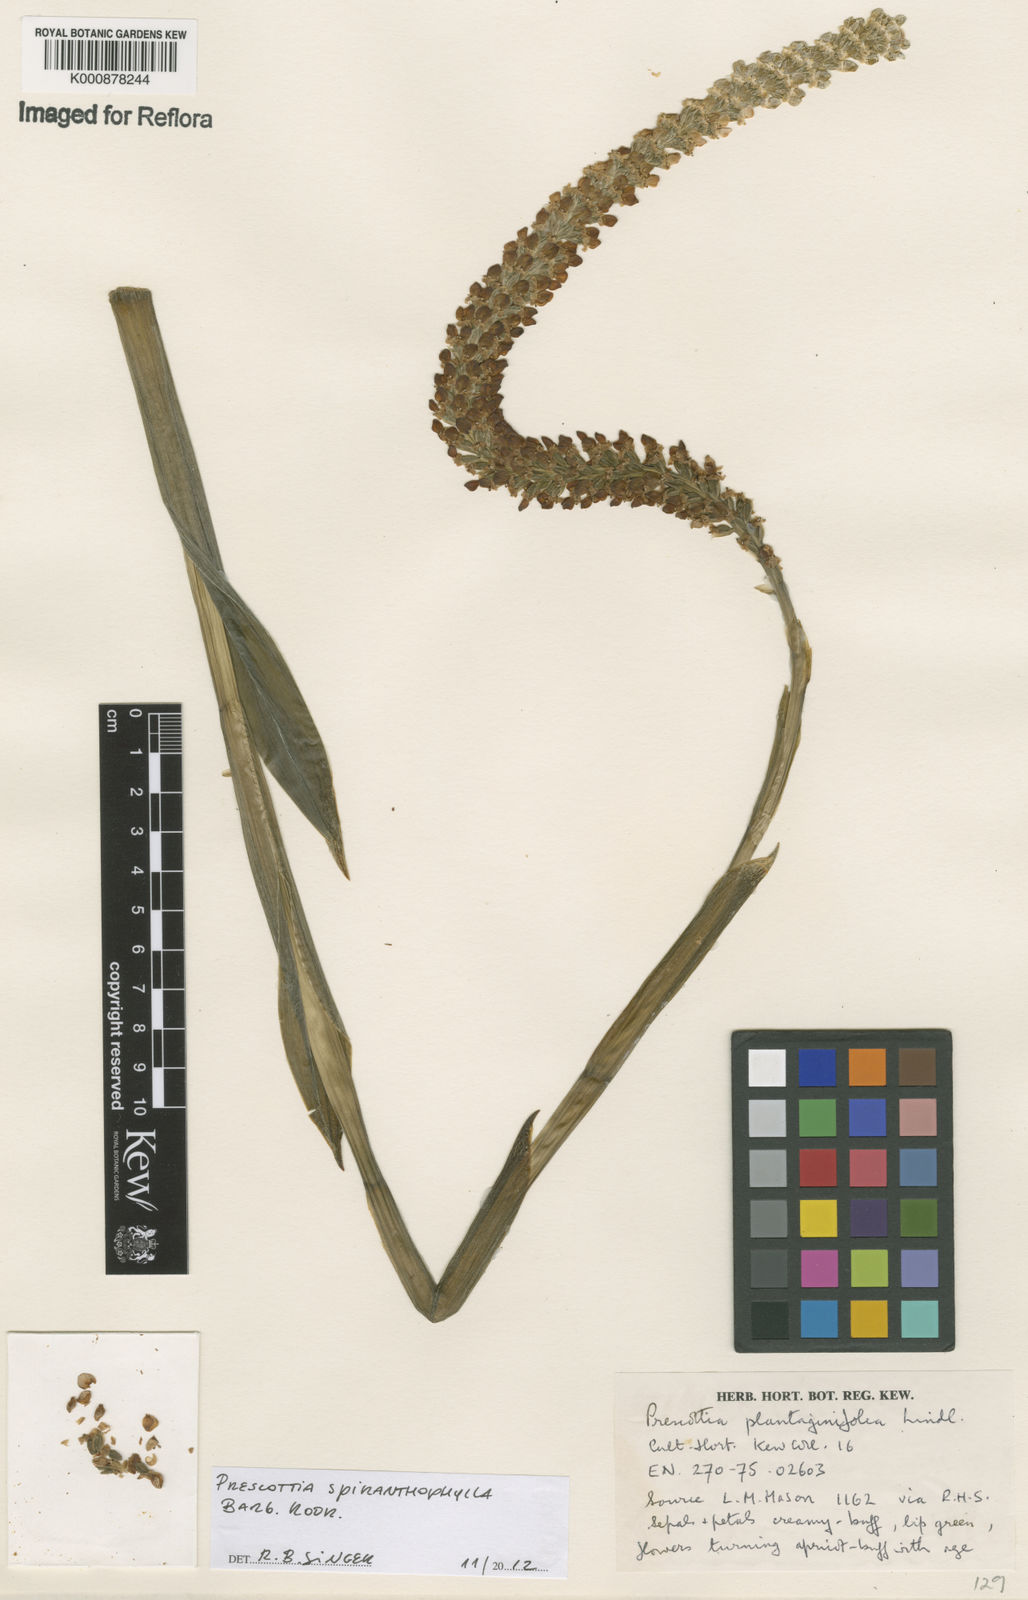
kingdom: Plantae
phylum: Tracheophyta
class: Liliopsida
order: Asparagales
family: Orchidaceae
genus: Prescottia
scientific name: Prescottia spiranthophylla
